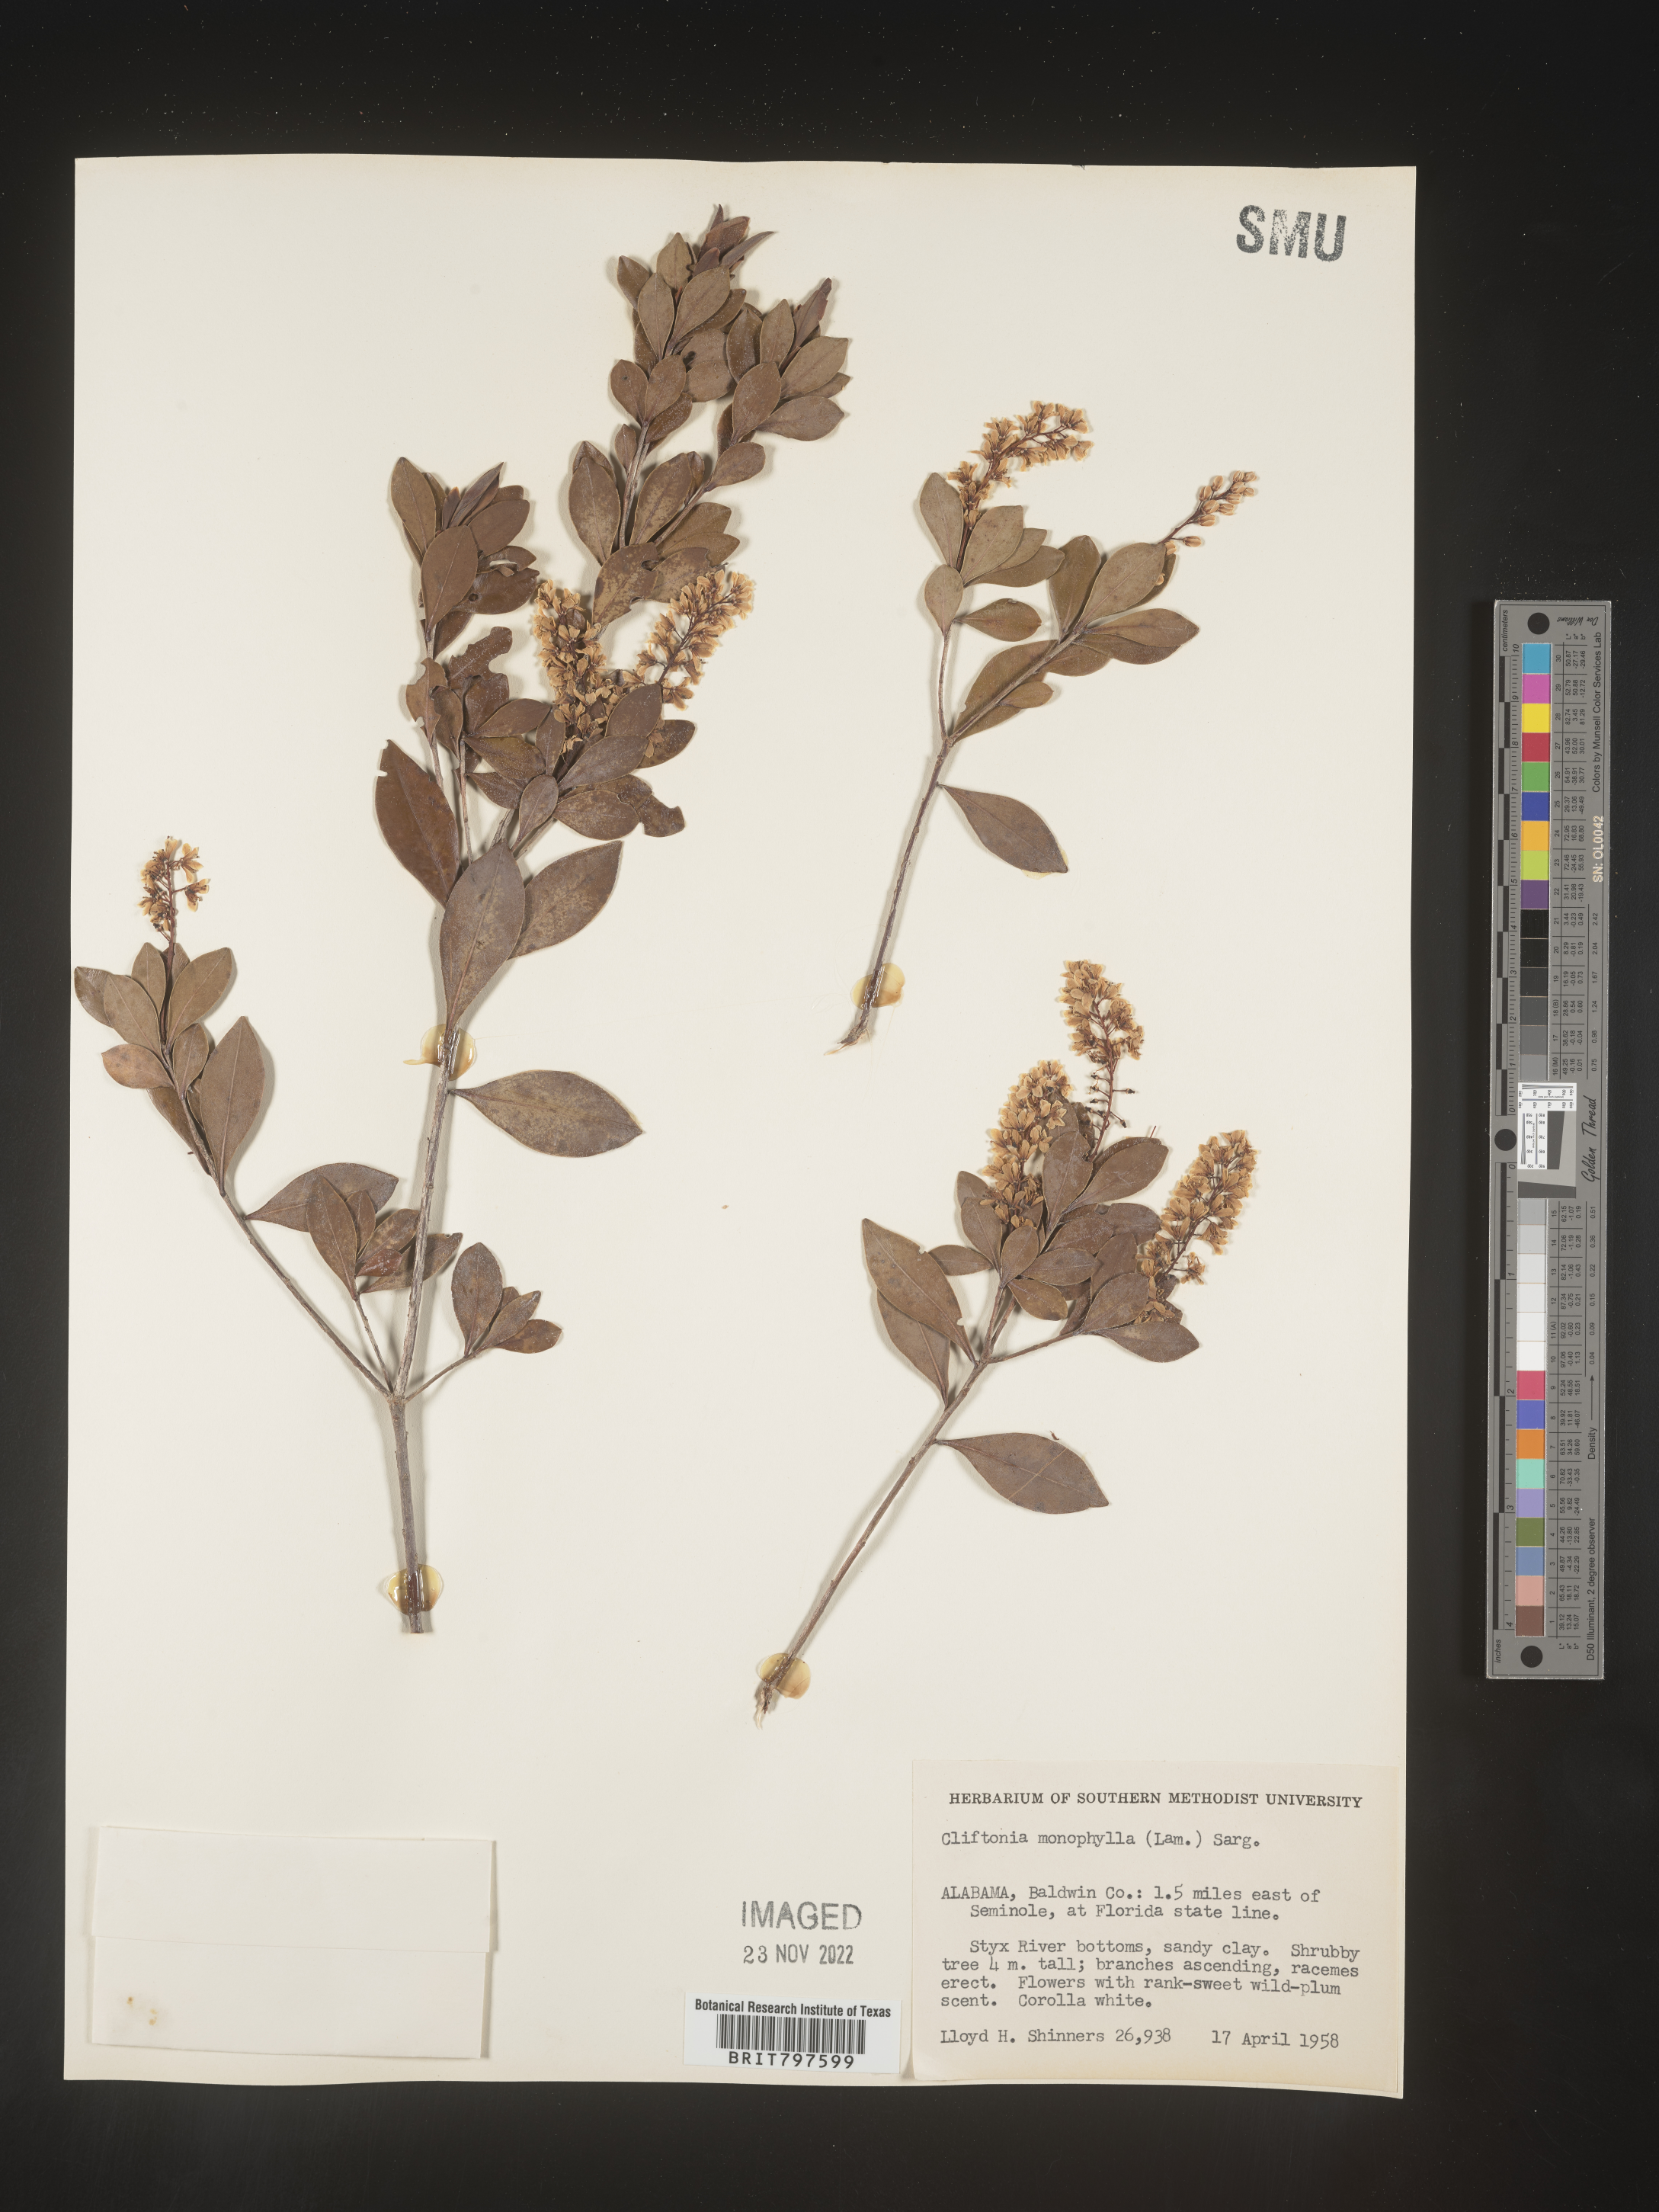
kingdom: Plantae
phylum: Tracheophyta
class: Magnoliopsida
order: Ericales
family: Cyrillaceae
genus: Cliftonia
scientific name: Cliftonia monophylla
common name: Titi
